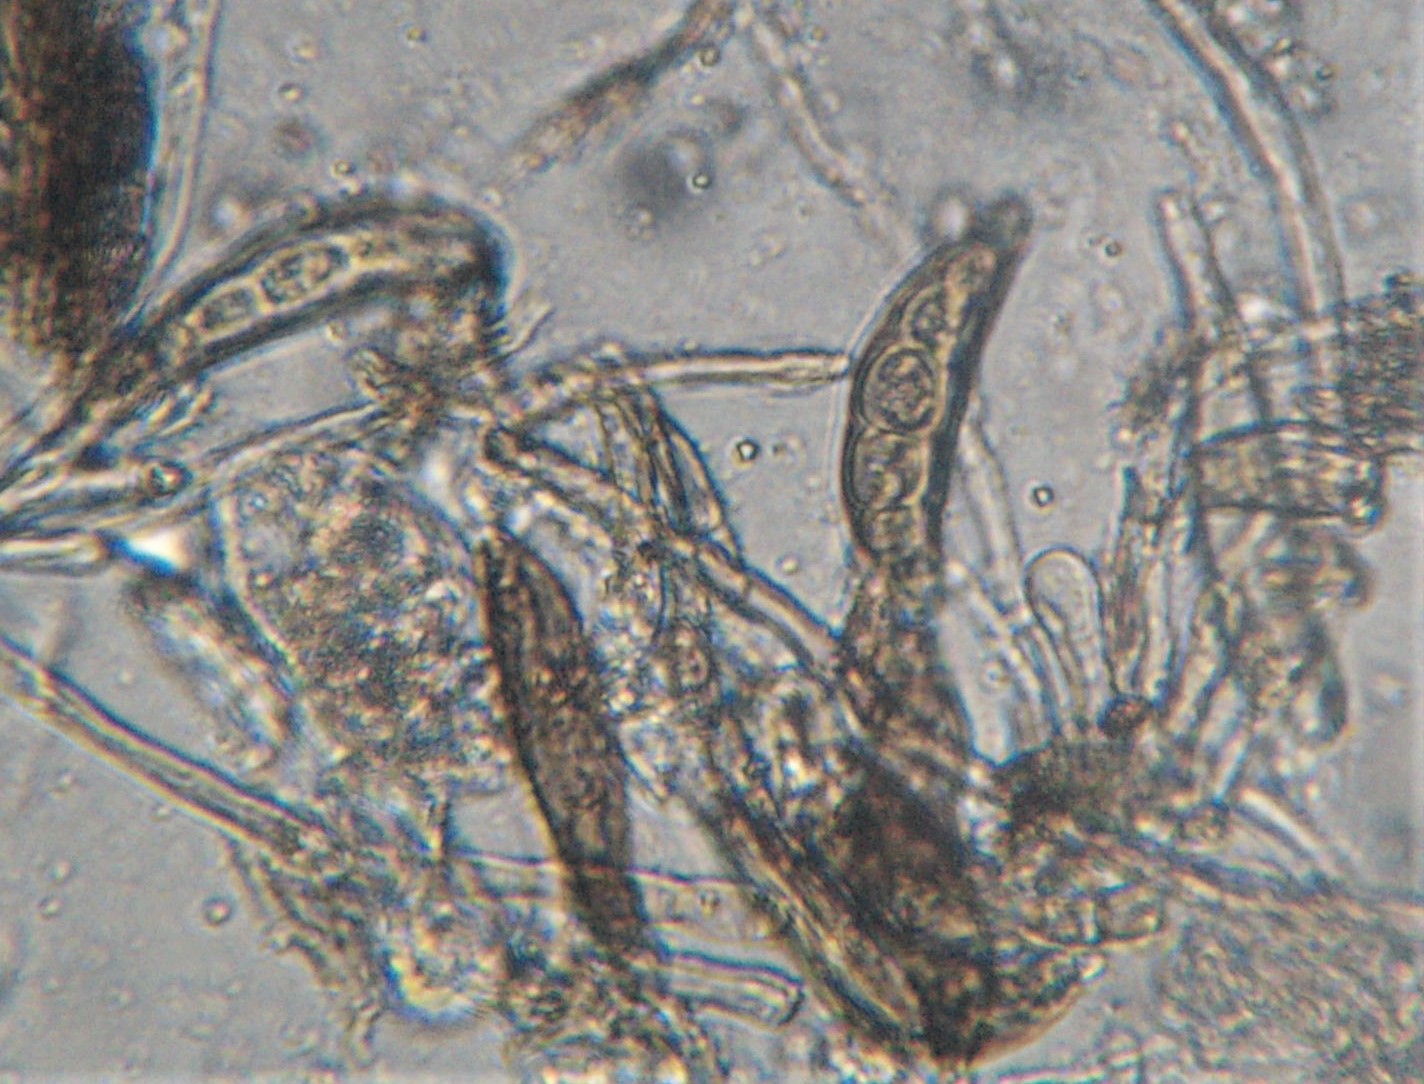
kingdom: Fungi
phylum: Ascomycota
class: Sordariomycetes
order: Diaporthales
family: Coryneaceae
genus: Pseudovalsa
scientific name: Pseudovalsa longipes
